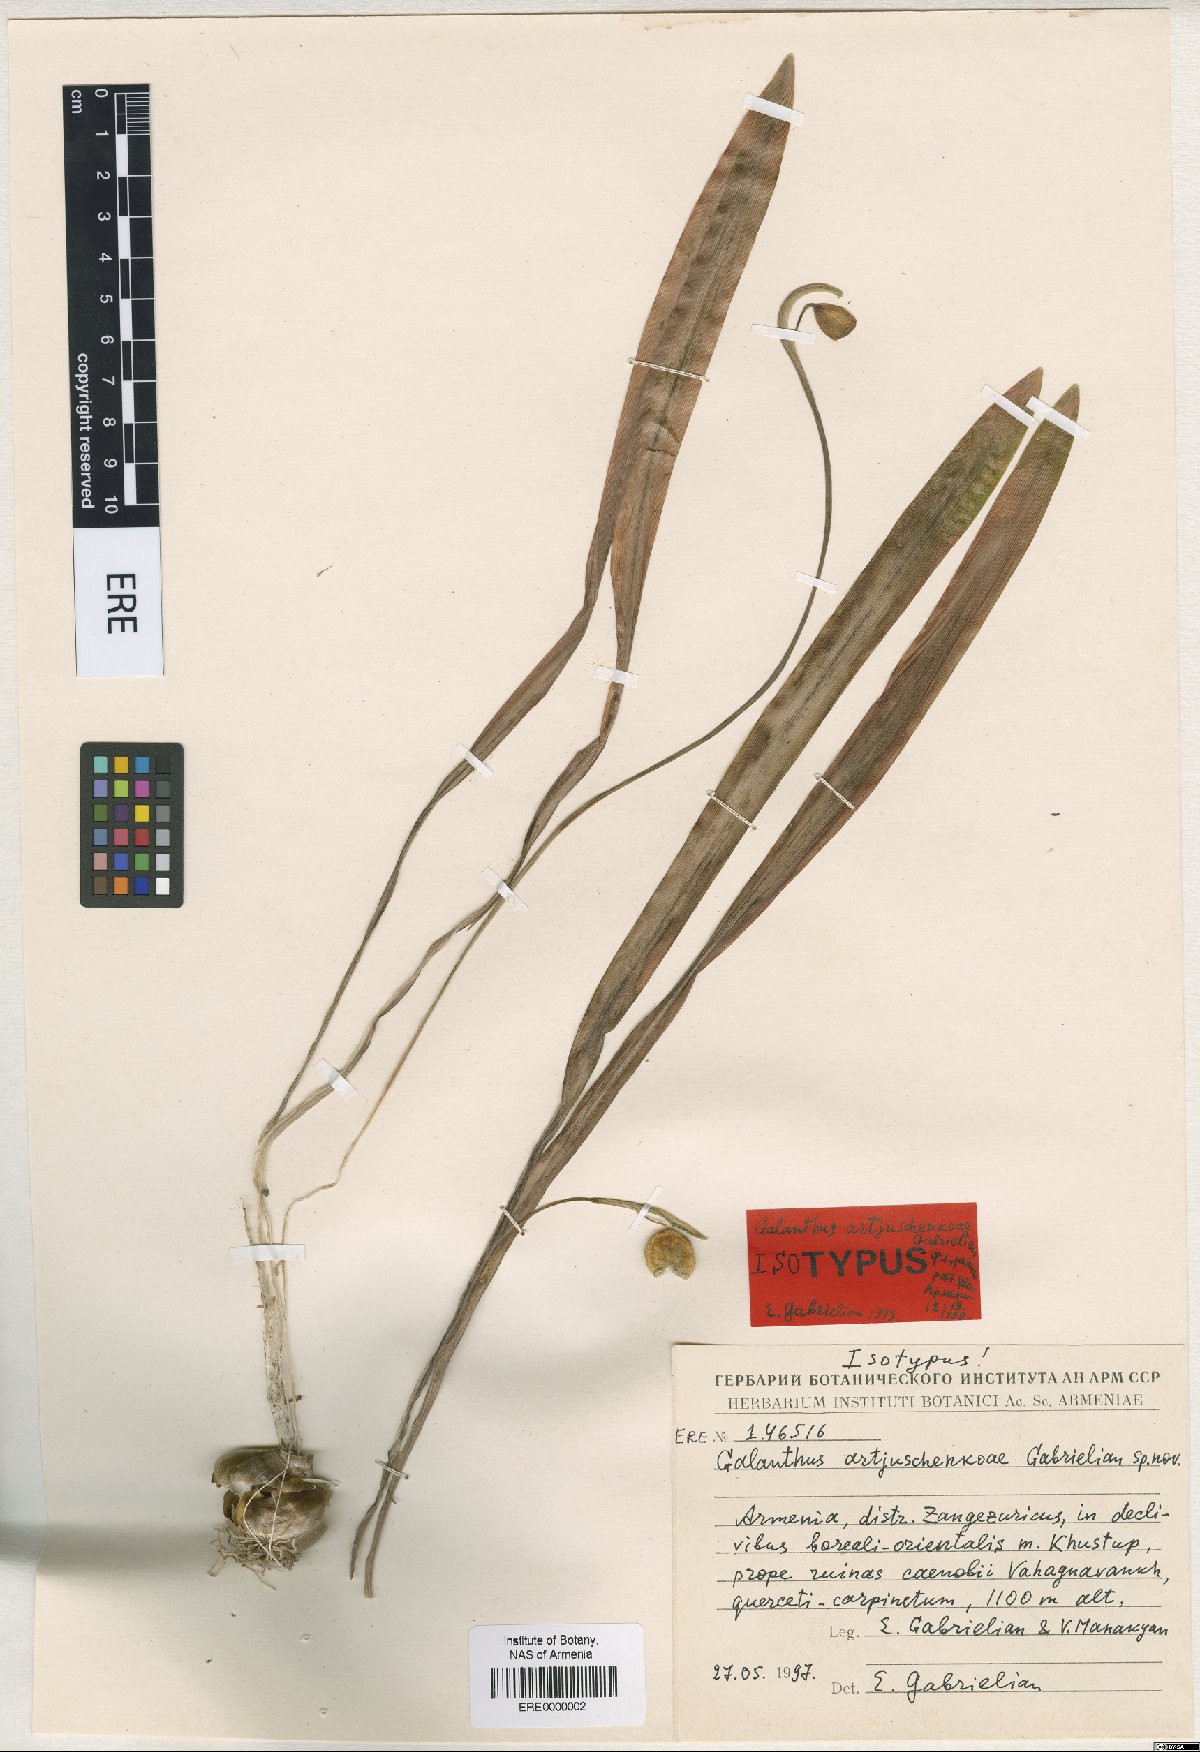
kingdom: Plantae
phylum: Tracheophyta
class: Liliopsida
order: Asparagales
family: Amaryllidaceae
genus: Galanthus
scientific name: Galanthus transcaucasicus
